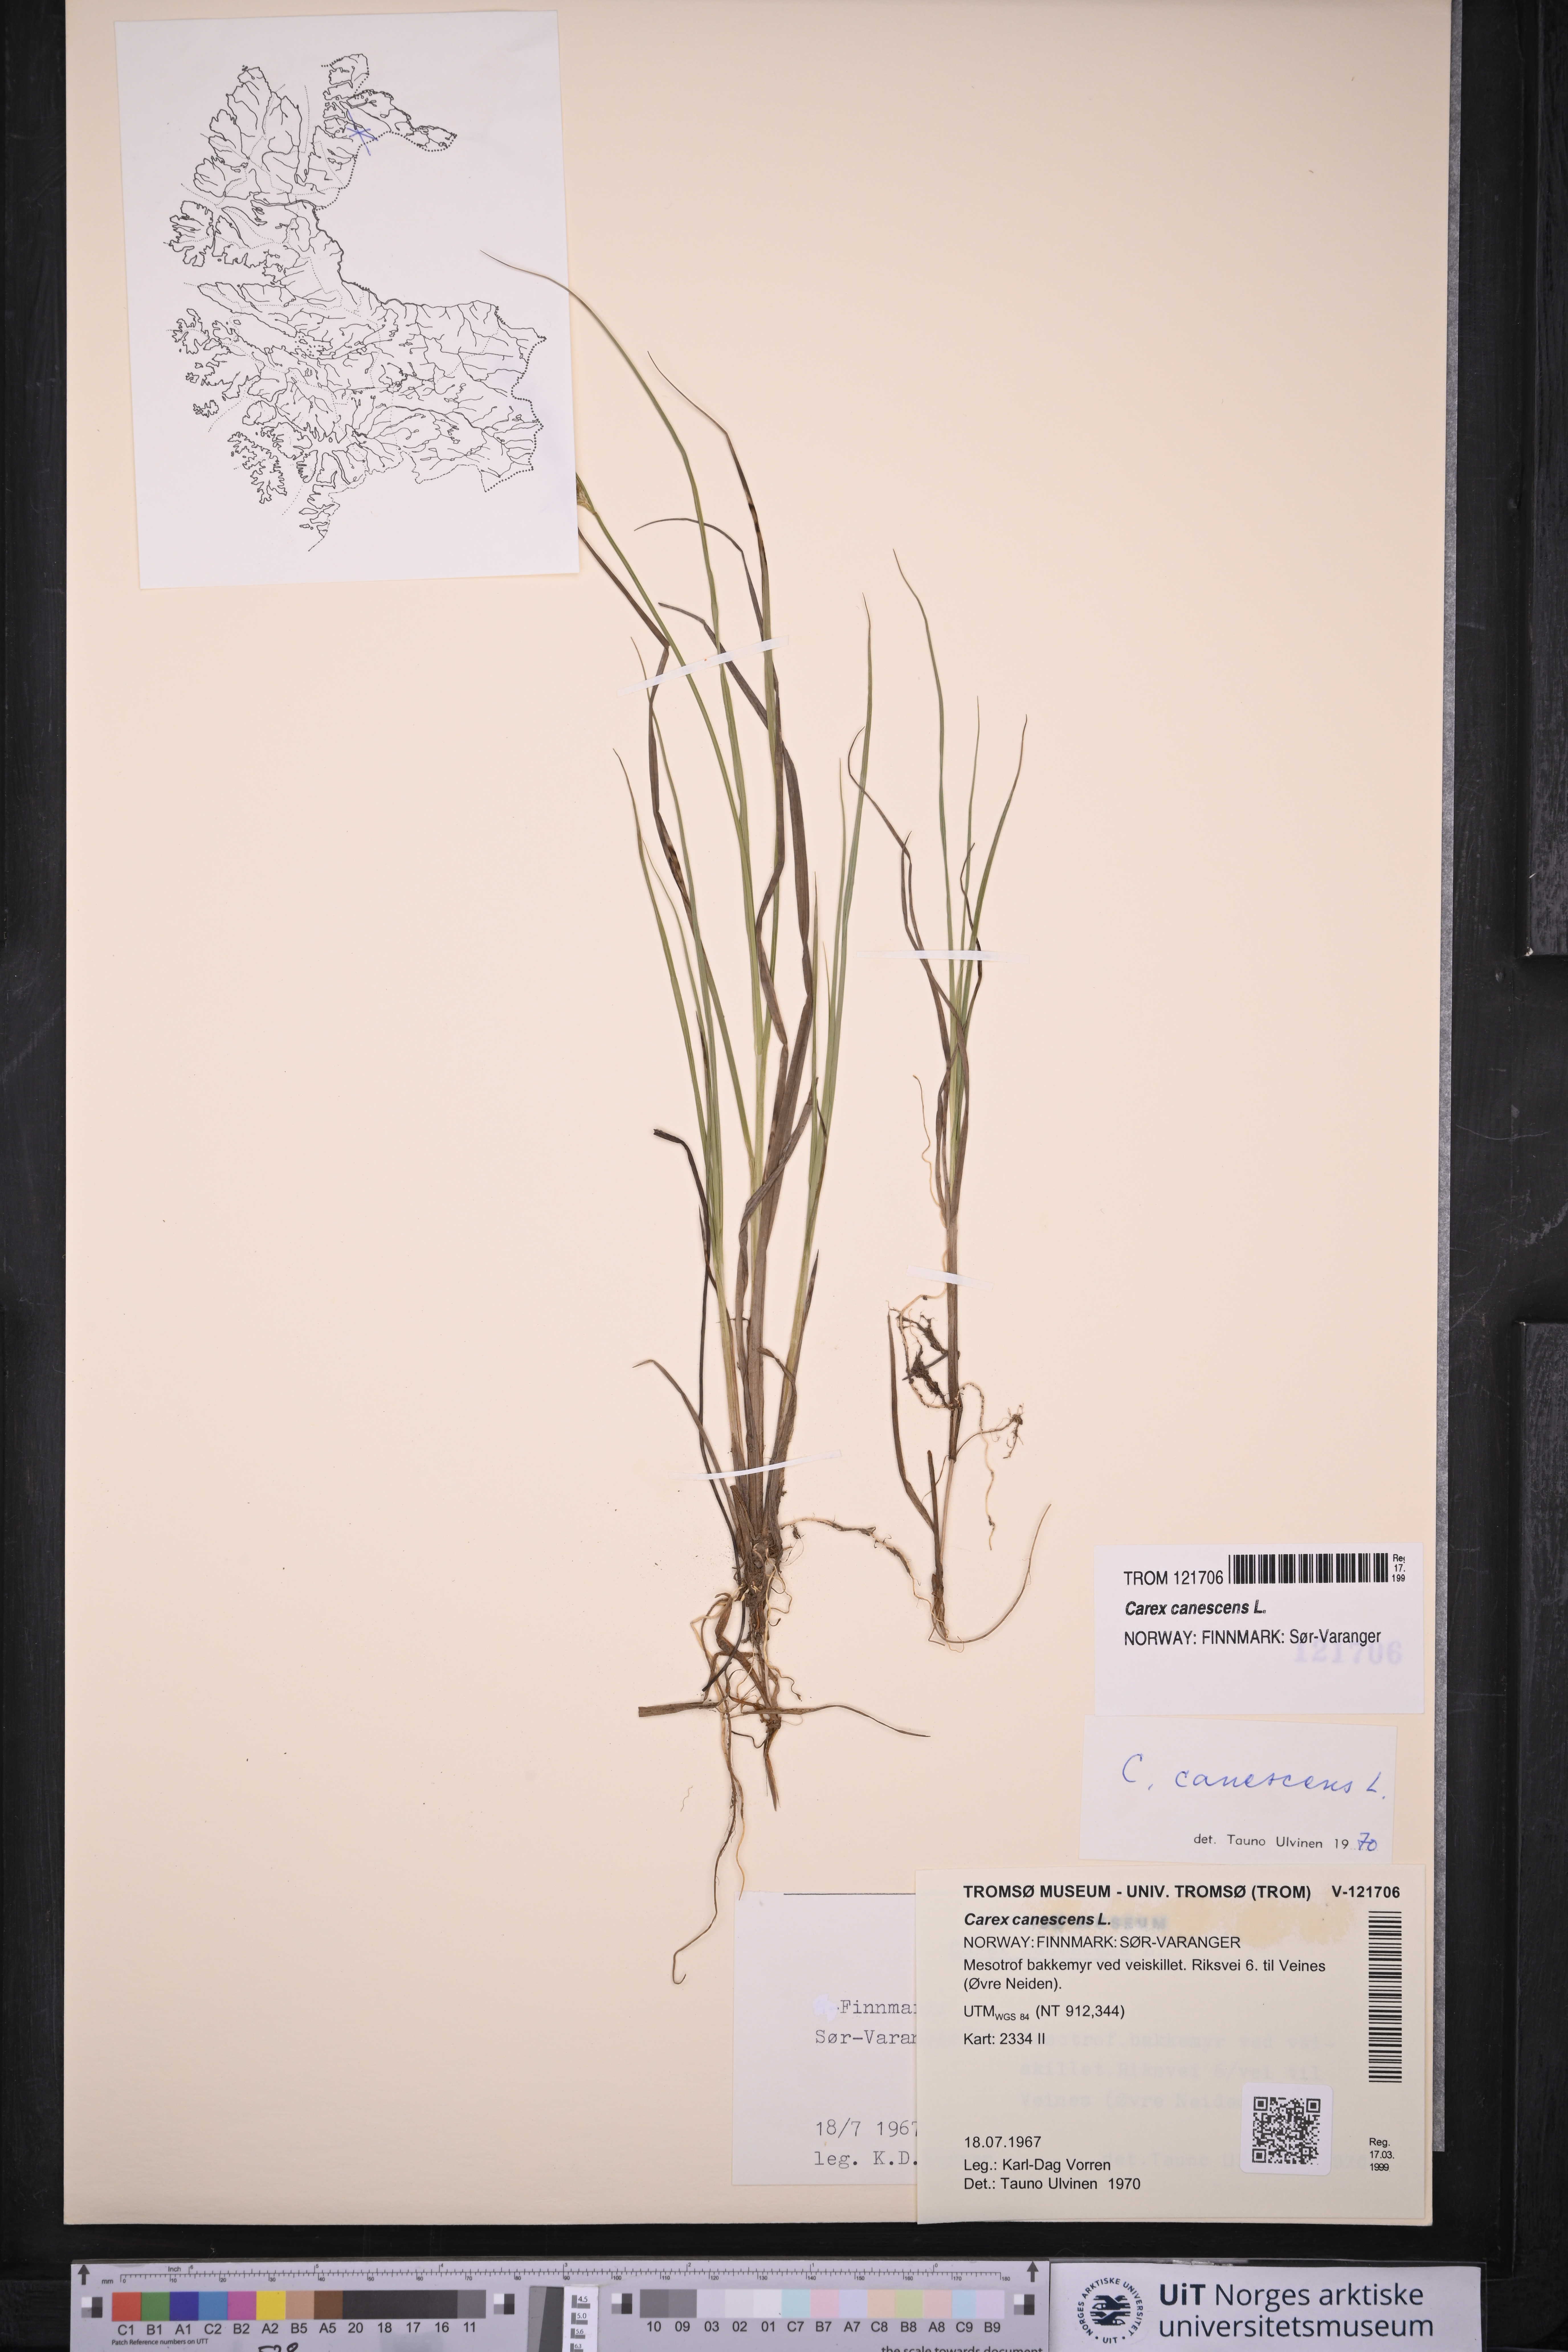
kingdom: Plantae
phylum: Tracheophyta
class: Liliopsida
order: Poales
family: Cyperaceae
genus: Carex
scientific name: Carex canescens
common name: White sedge
